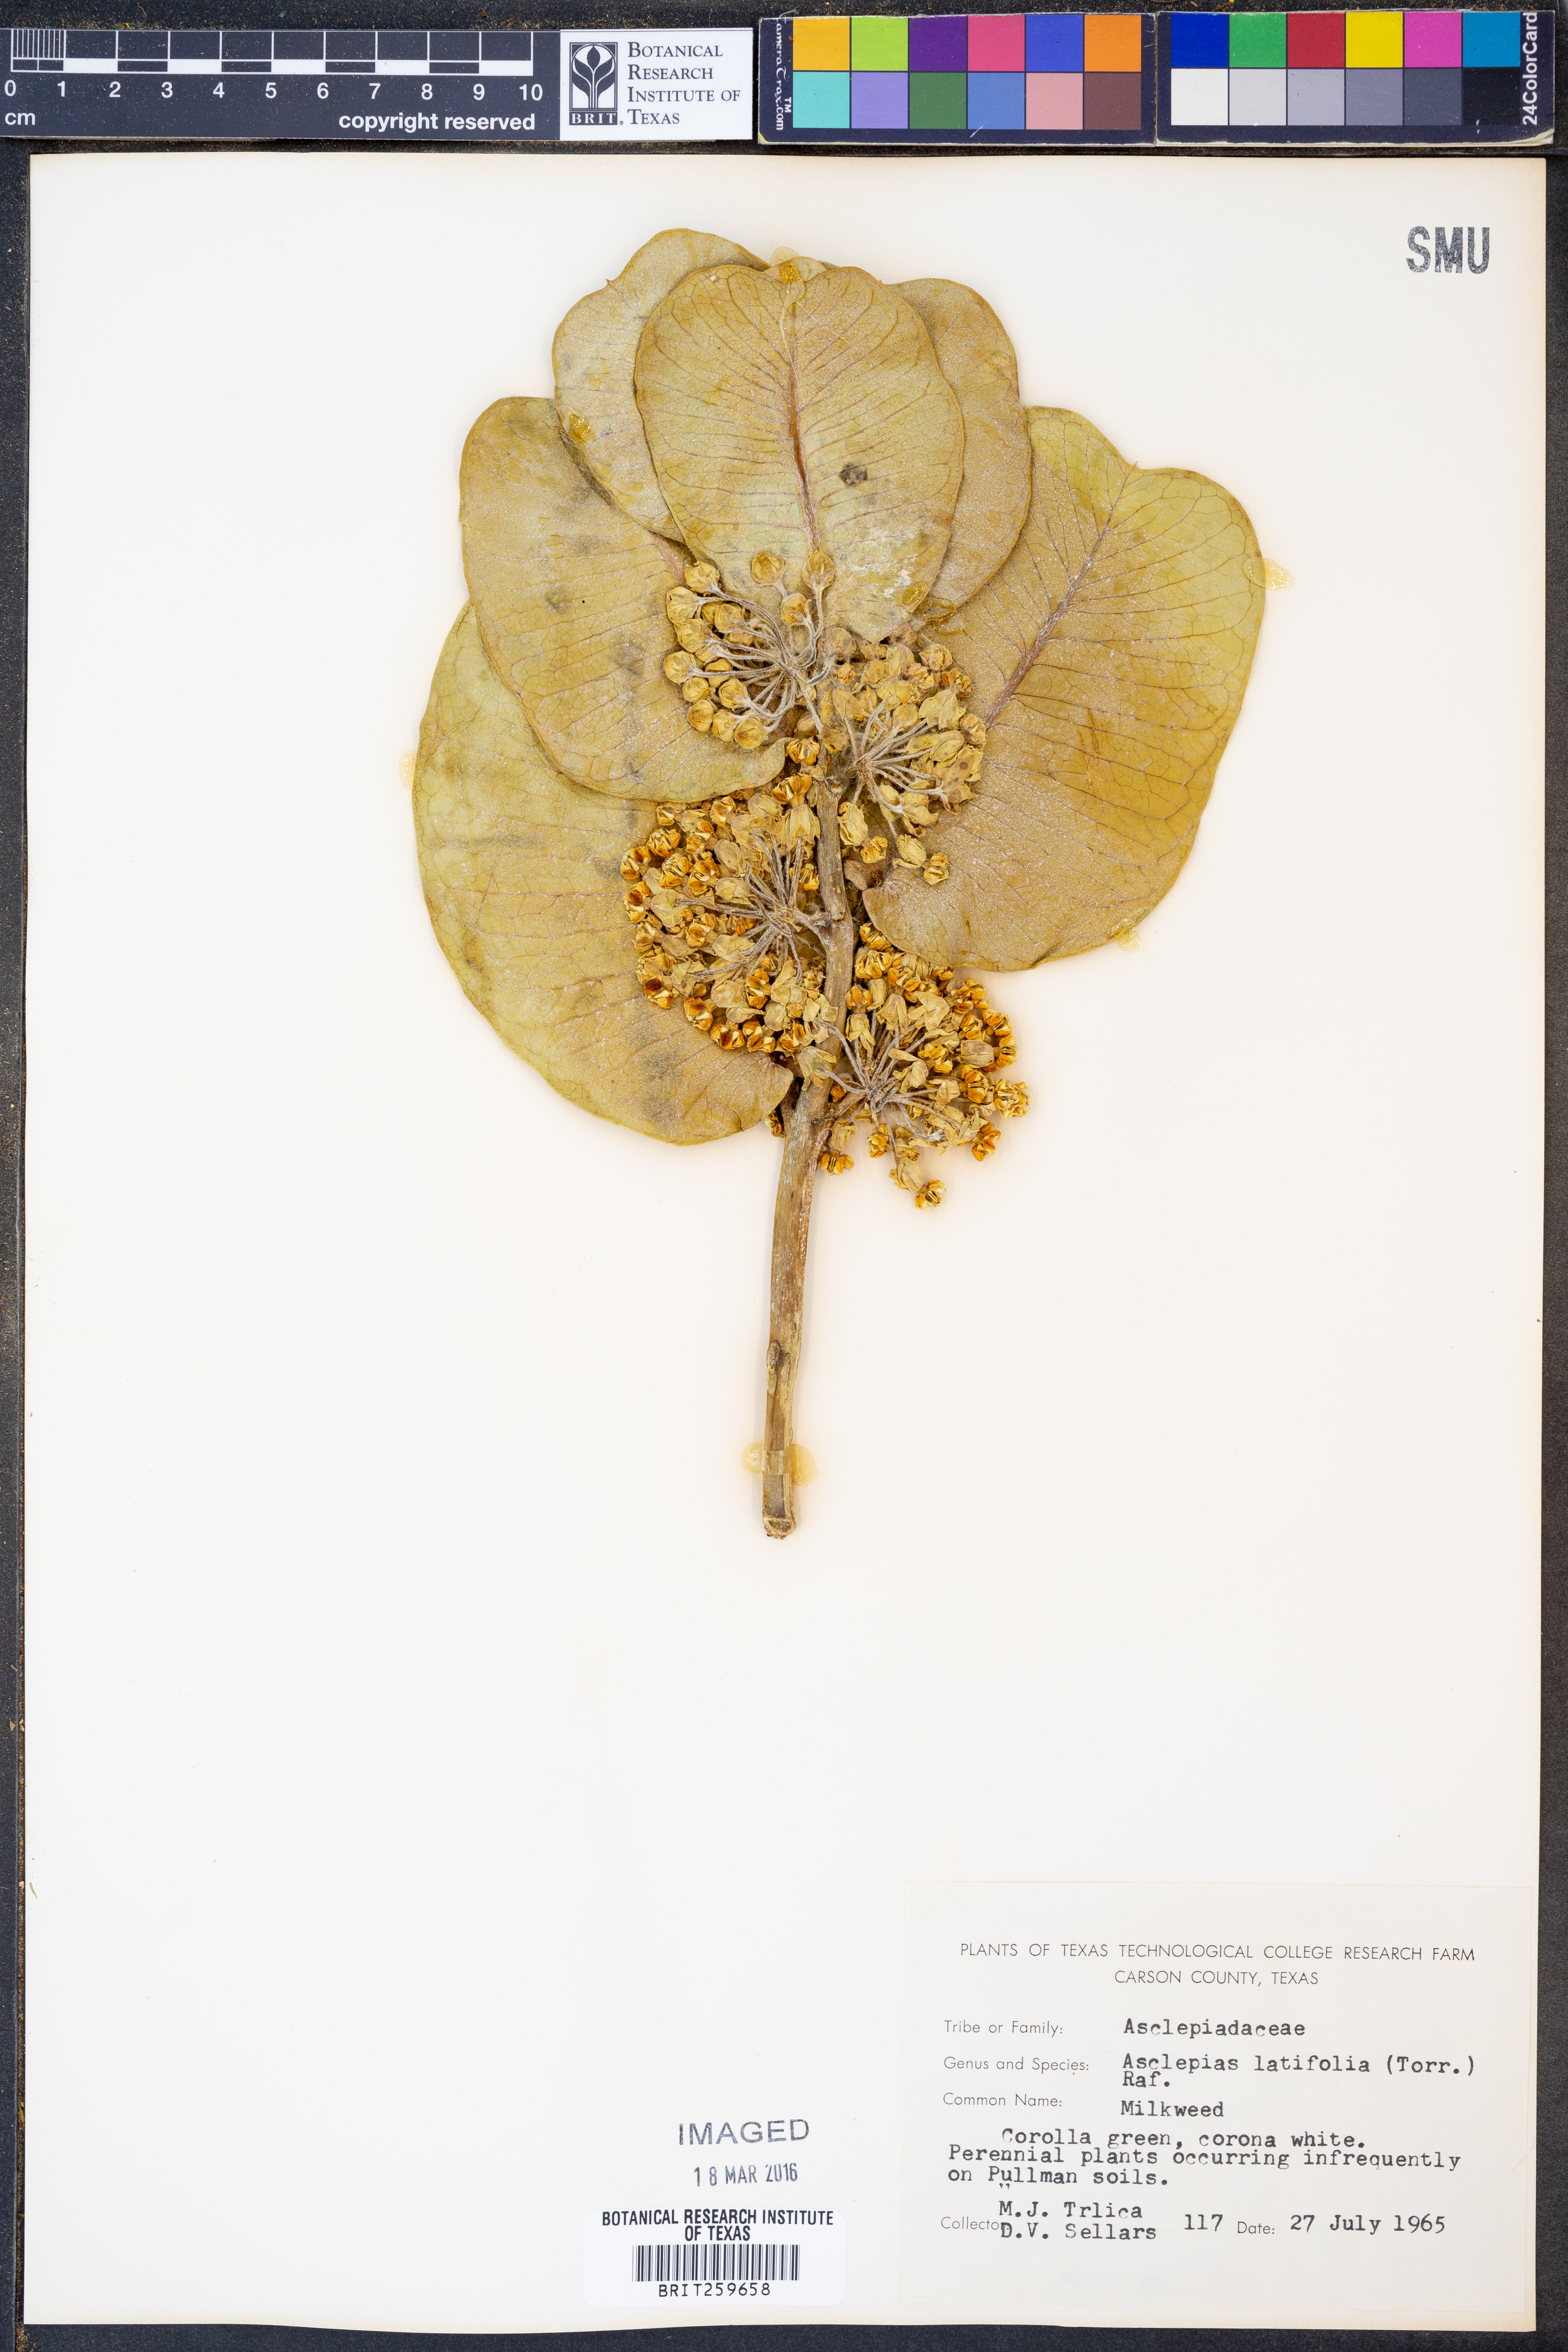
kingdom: Plantae
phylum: Tracheophyta
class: Magnoliopsida
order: Gentianales
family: Apocynaceae
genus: Asclepias
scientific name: Asclepias latifolia
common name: Broadleaf milkweed
